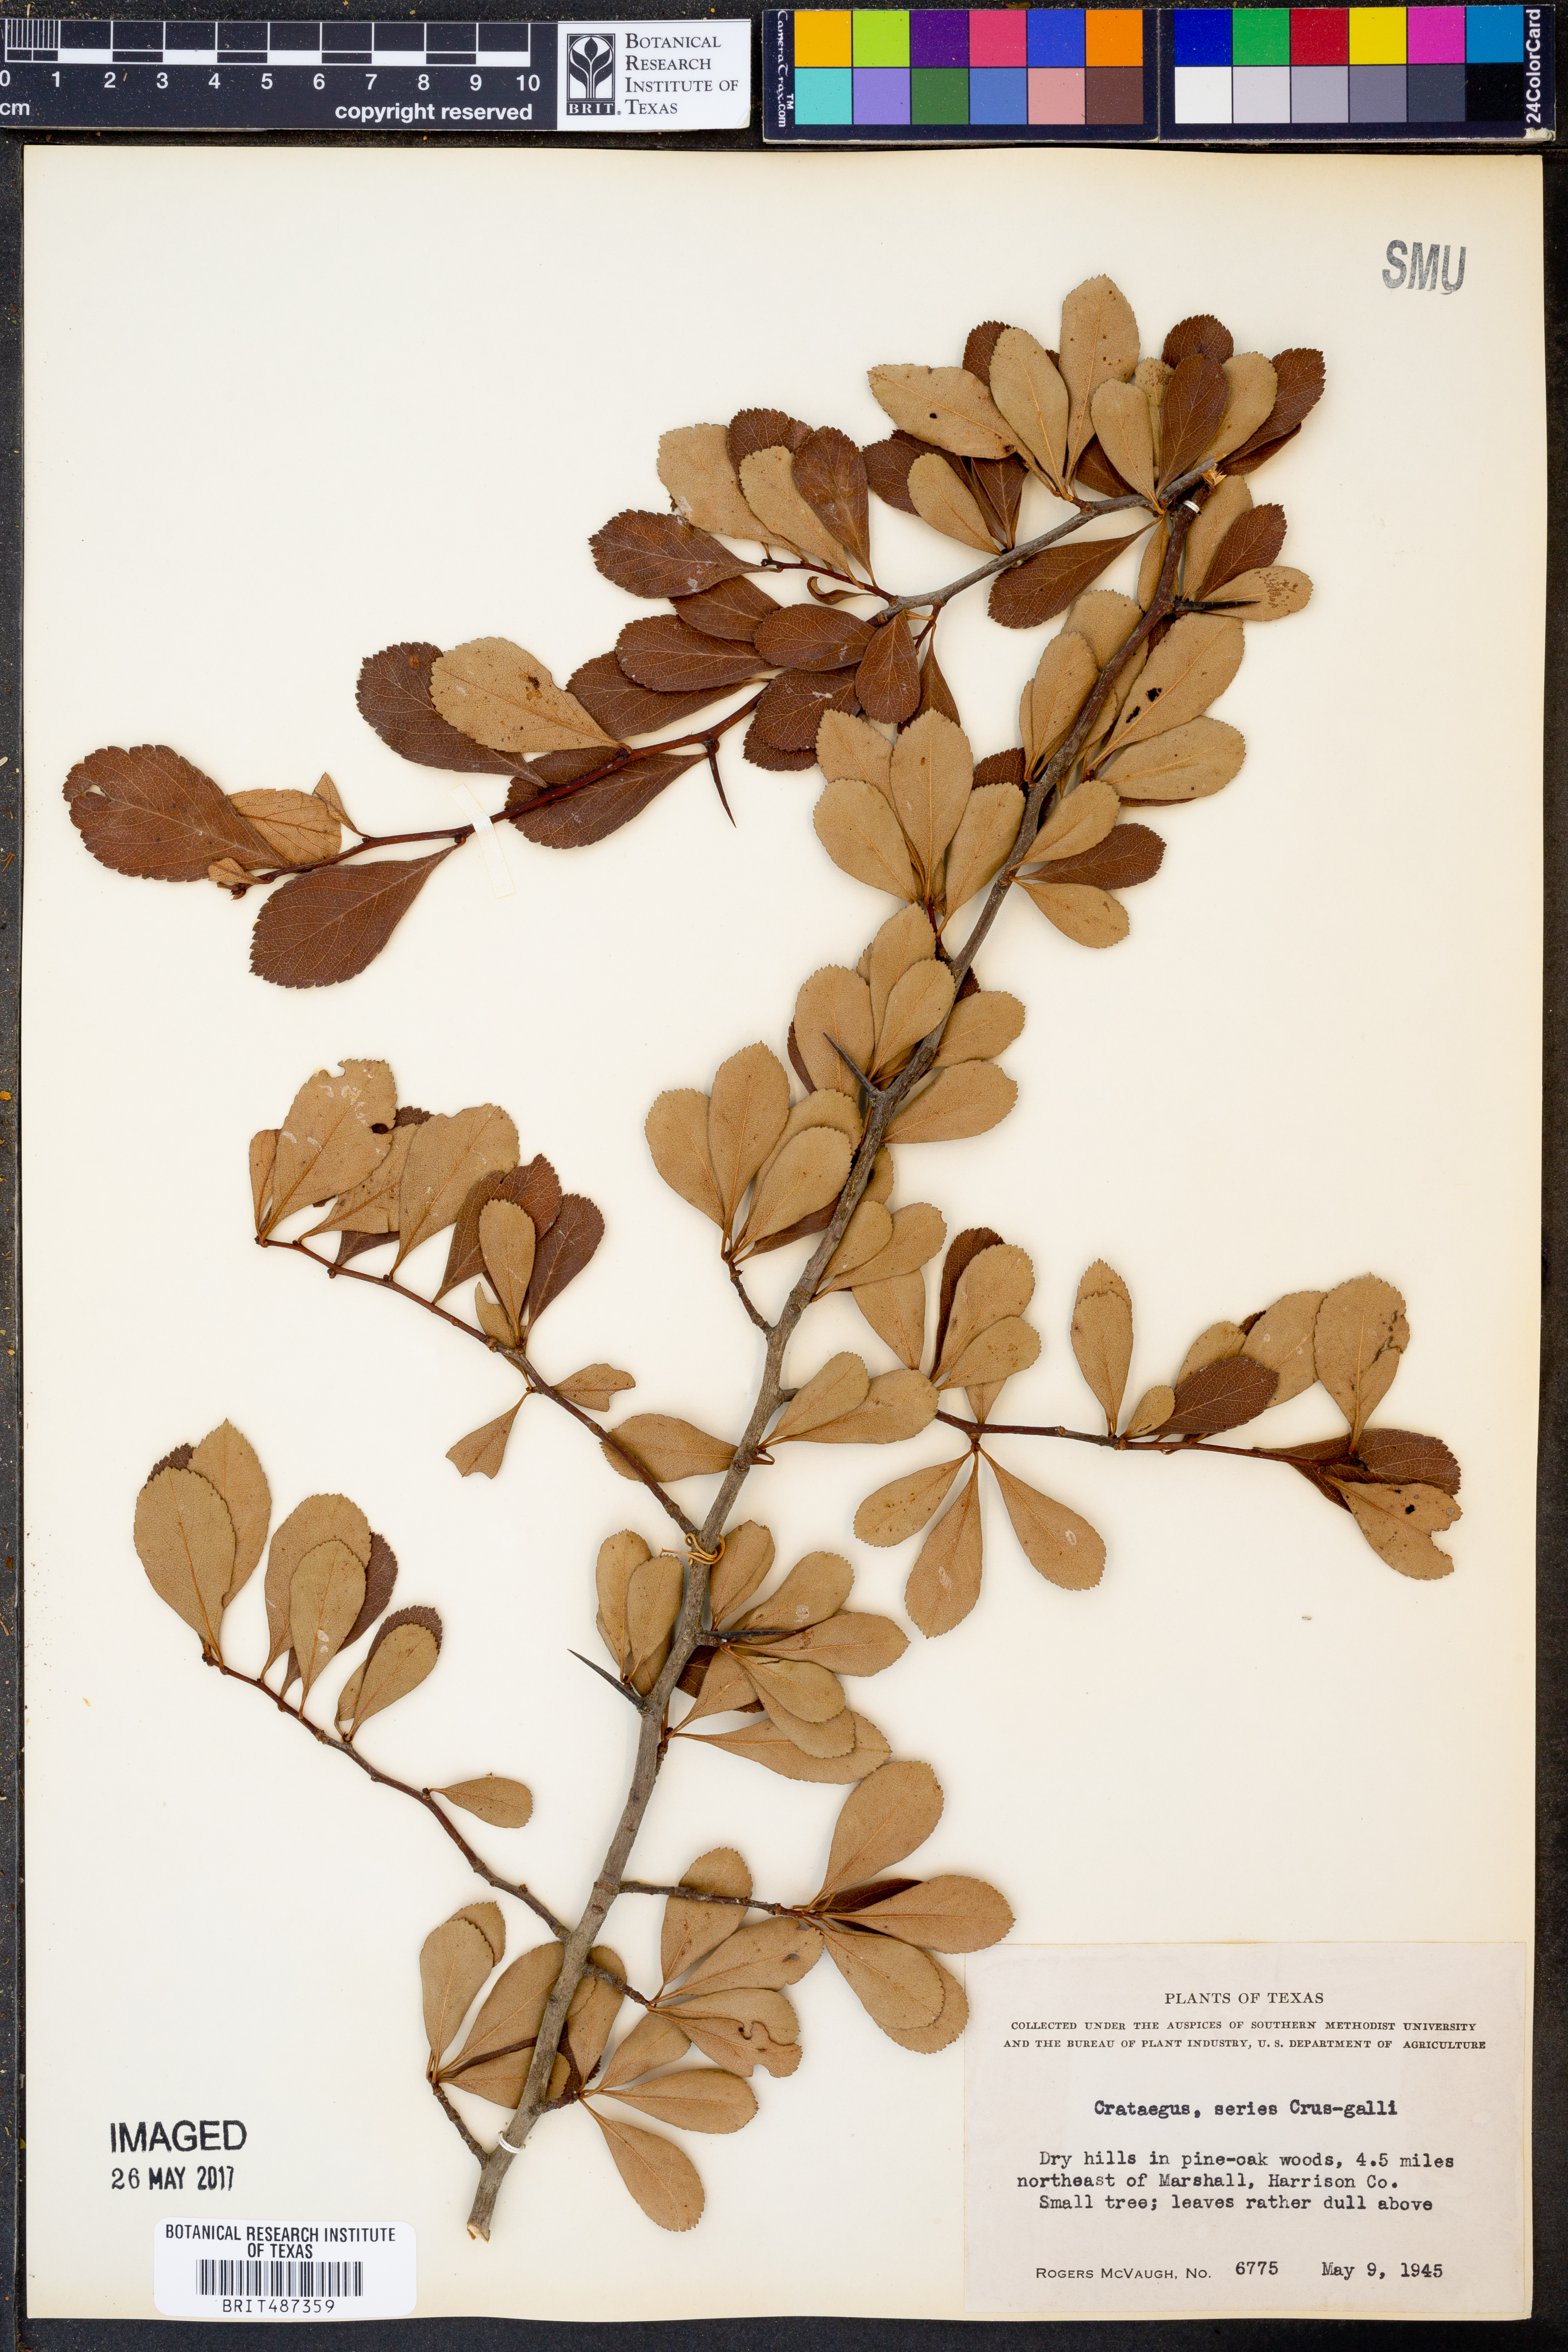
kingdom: Plantae
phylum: Tracheophyta
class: Magnoliopsida
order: Rosales
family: Rosaceae
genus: Crataegus
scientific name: Crataegus crus-galli
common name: Cockspurthorn
